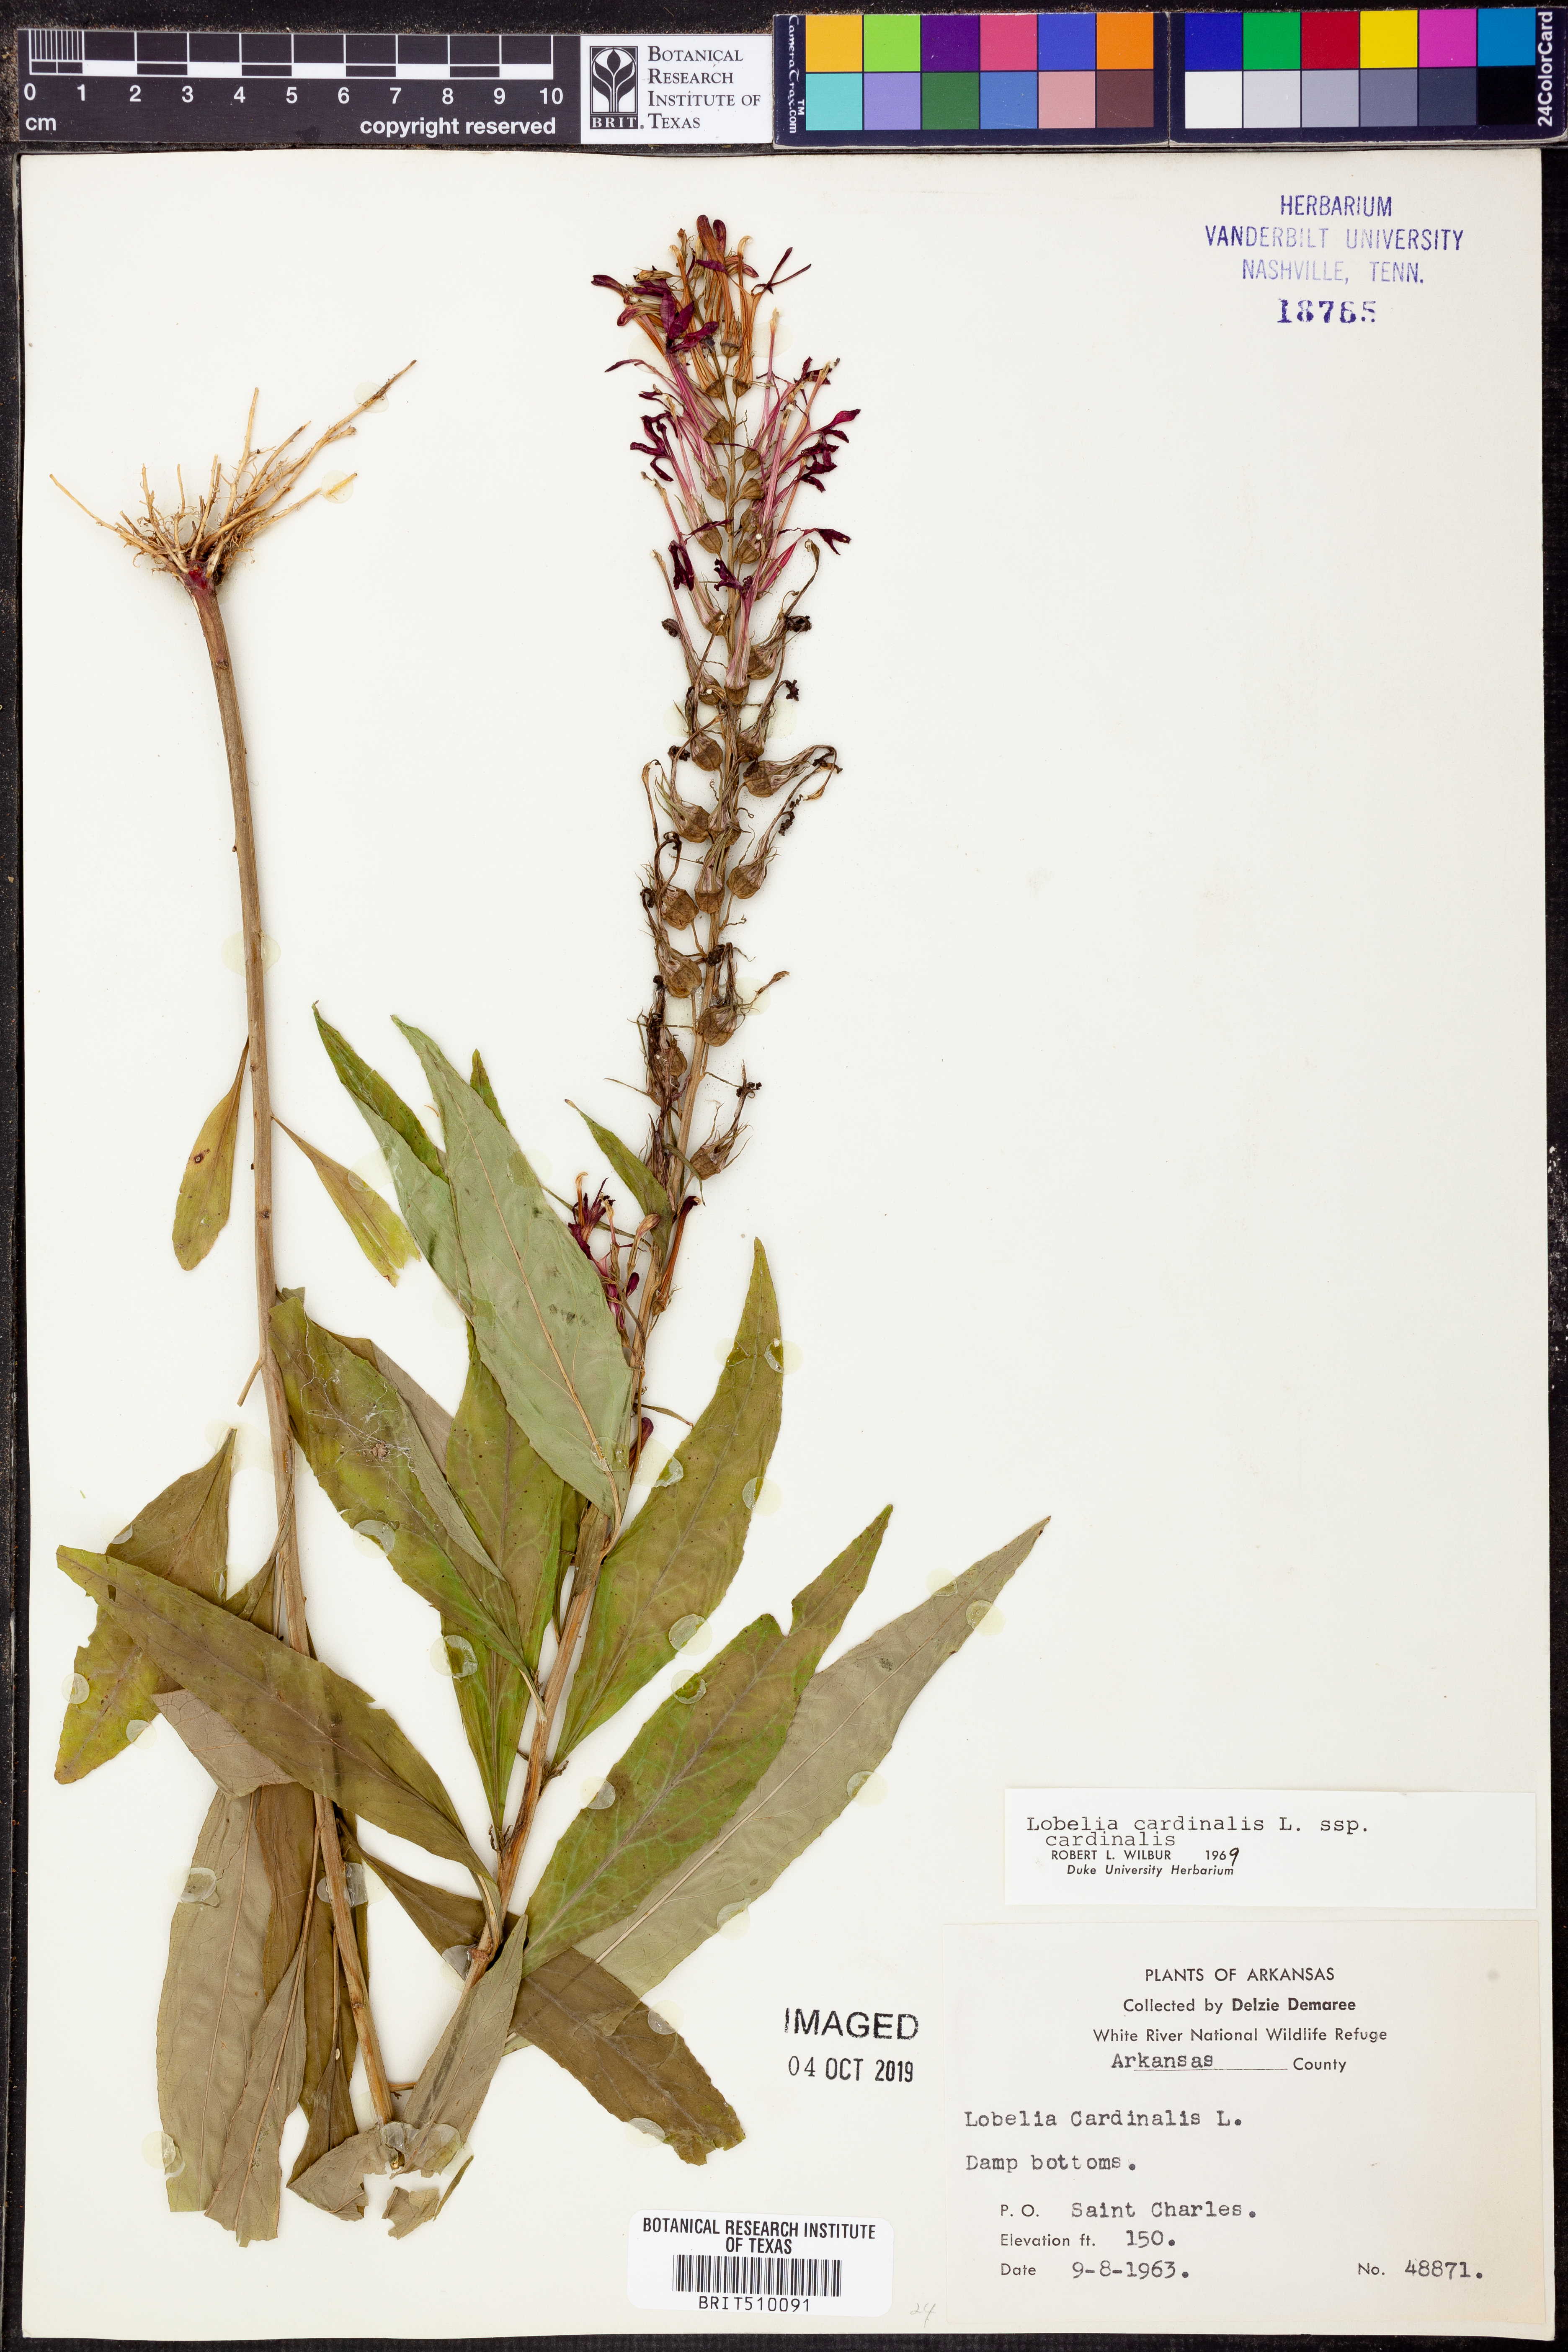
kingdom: Plantae
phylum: Tracheophyta
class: Magnoliopsida
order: Asterales
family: Campanulaceae
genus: Lobelia
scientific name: Lobelia cardinalis
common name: Cardinal flower
